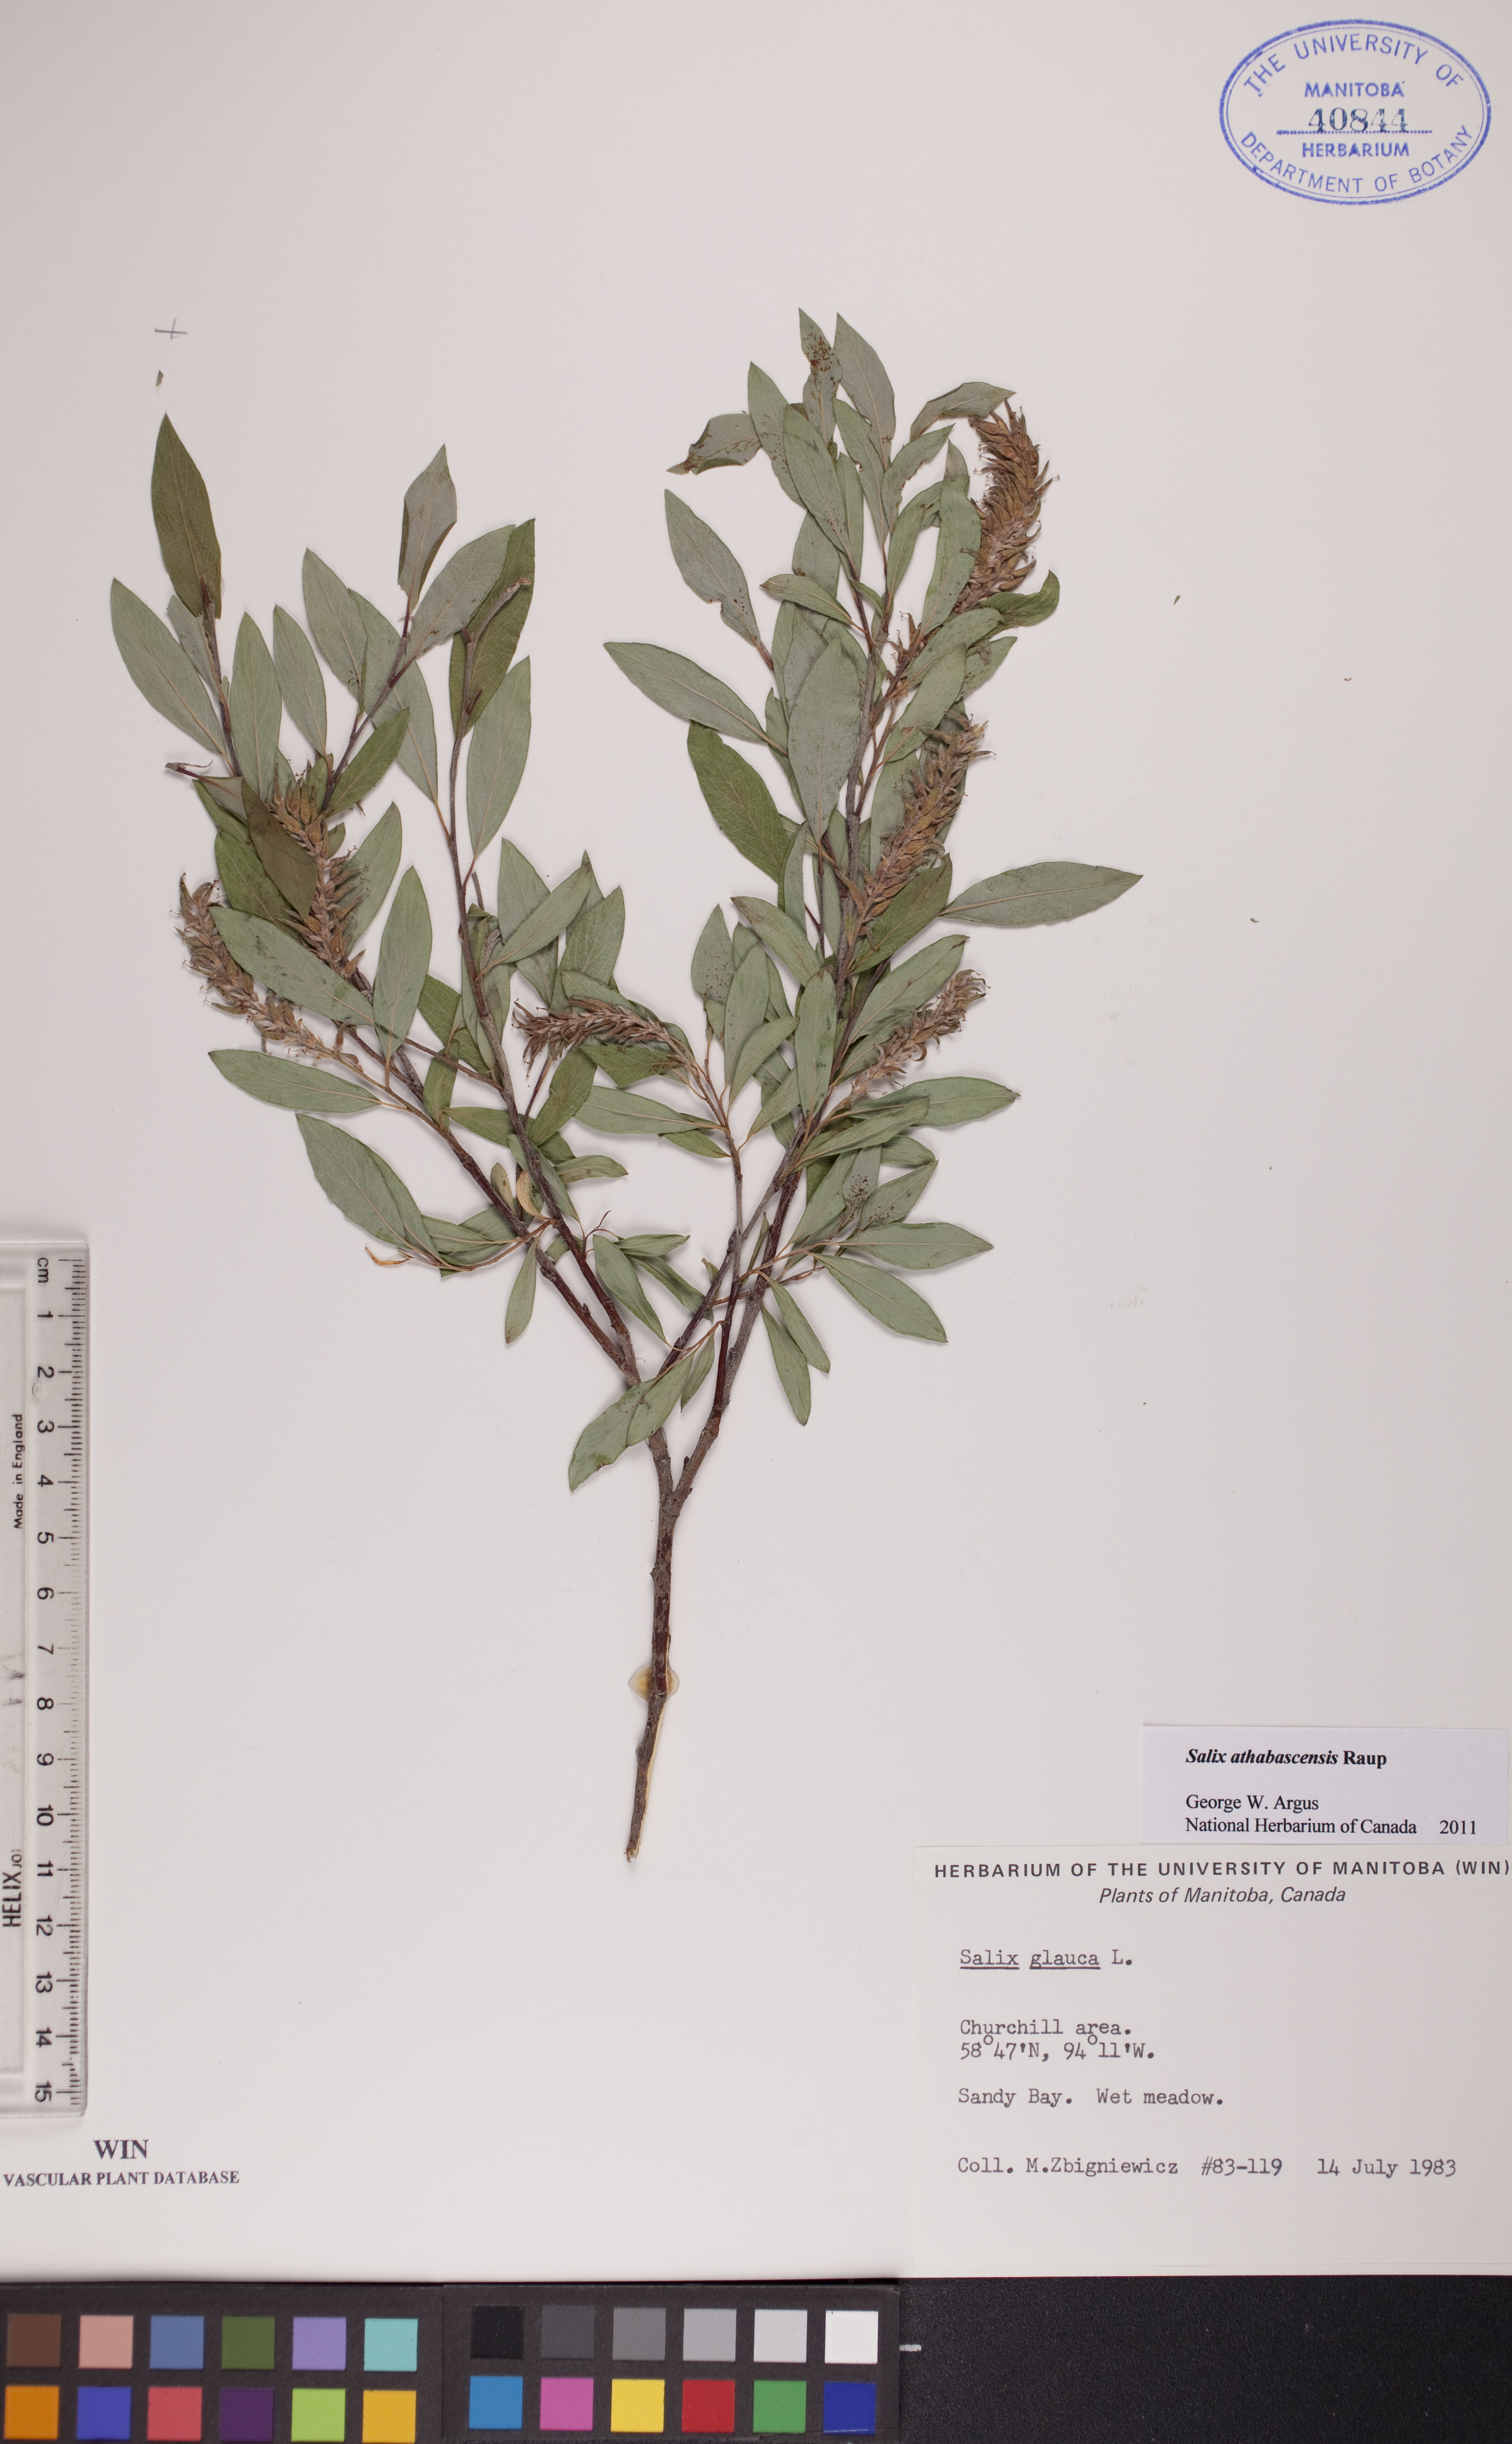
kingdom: Plantae
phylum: Tracheophyta
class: Magnoliopsida
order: Malpighiales
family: Salicaceae
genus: Salix
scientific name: Salix athabascensis
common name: Athabasca willow
